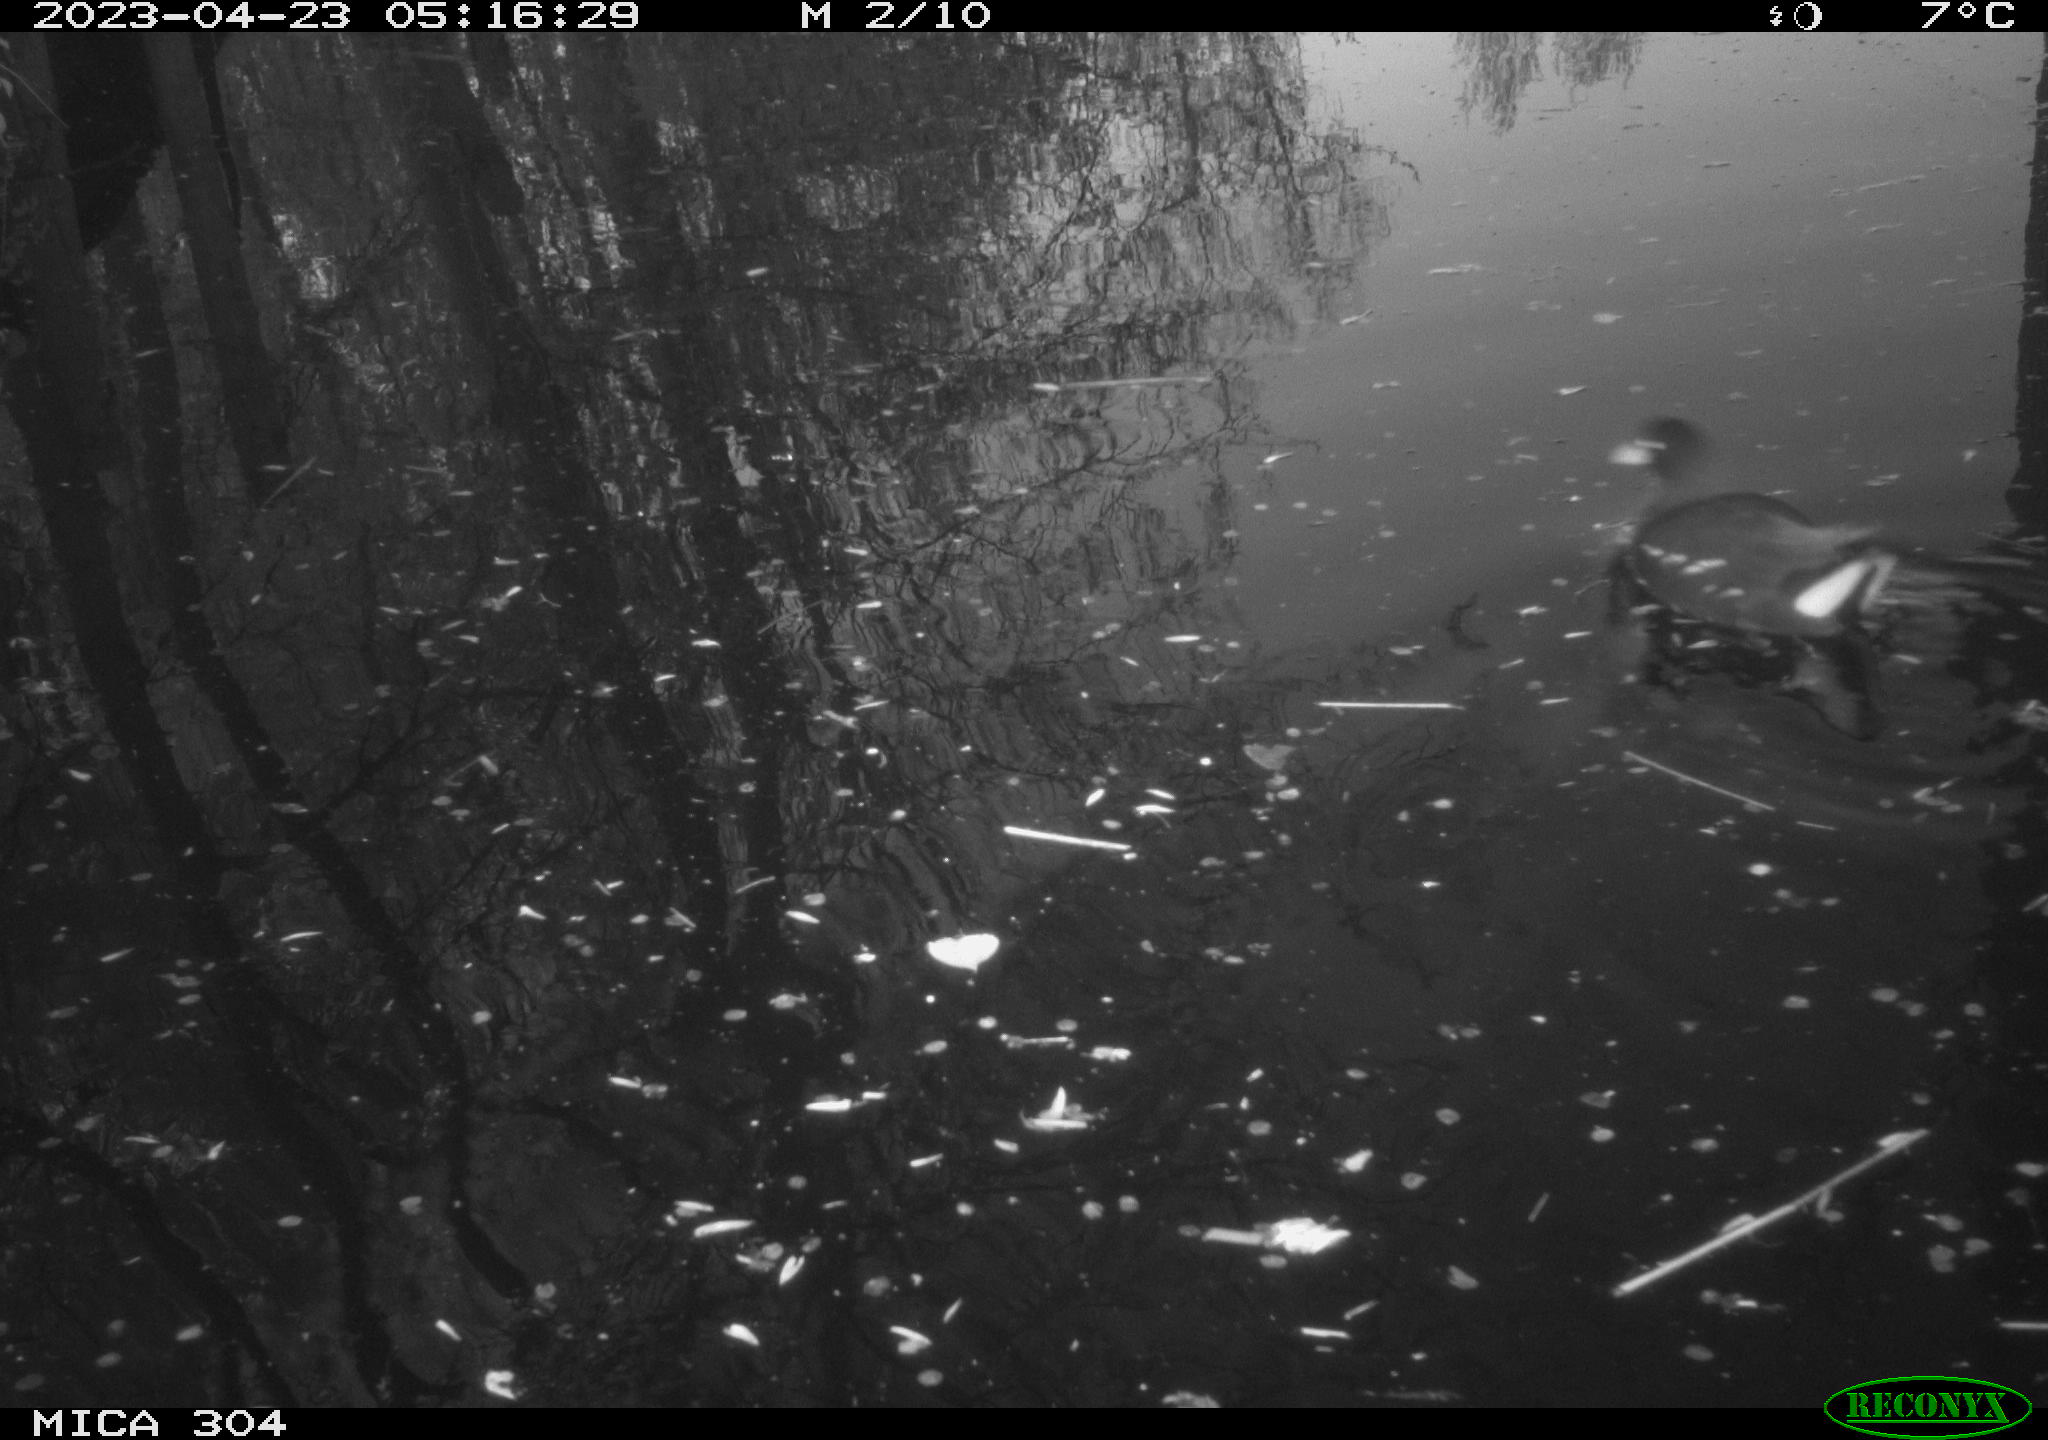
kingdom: Animalia
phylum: Chordata
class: Aves
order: Gruiformes
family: Rallidae
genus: Gallinula
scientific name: Gallinula chloropus
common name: Common moorhen
